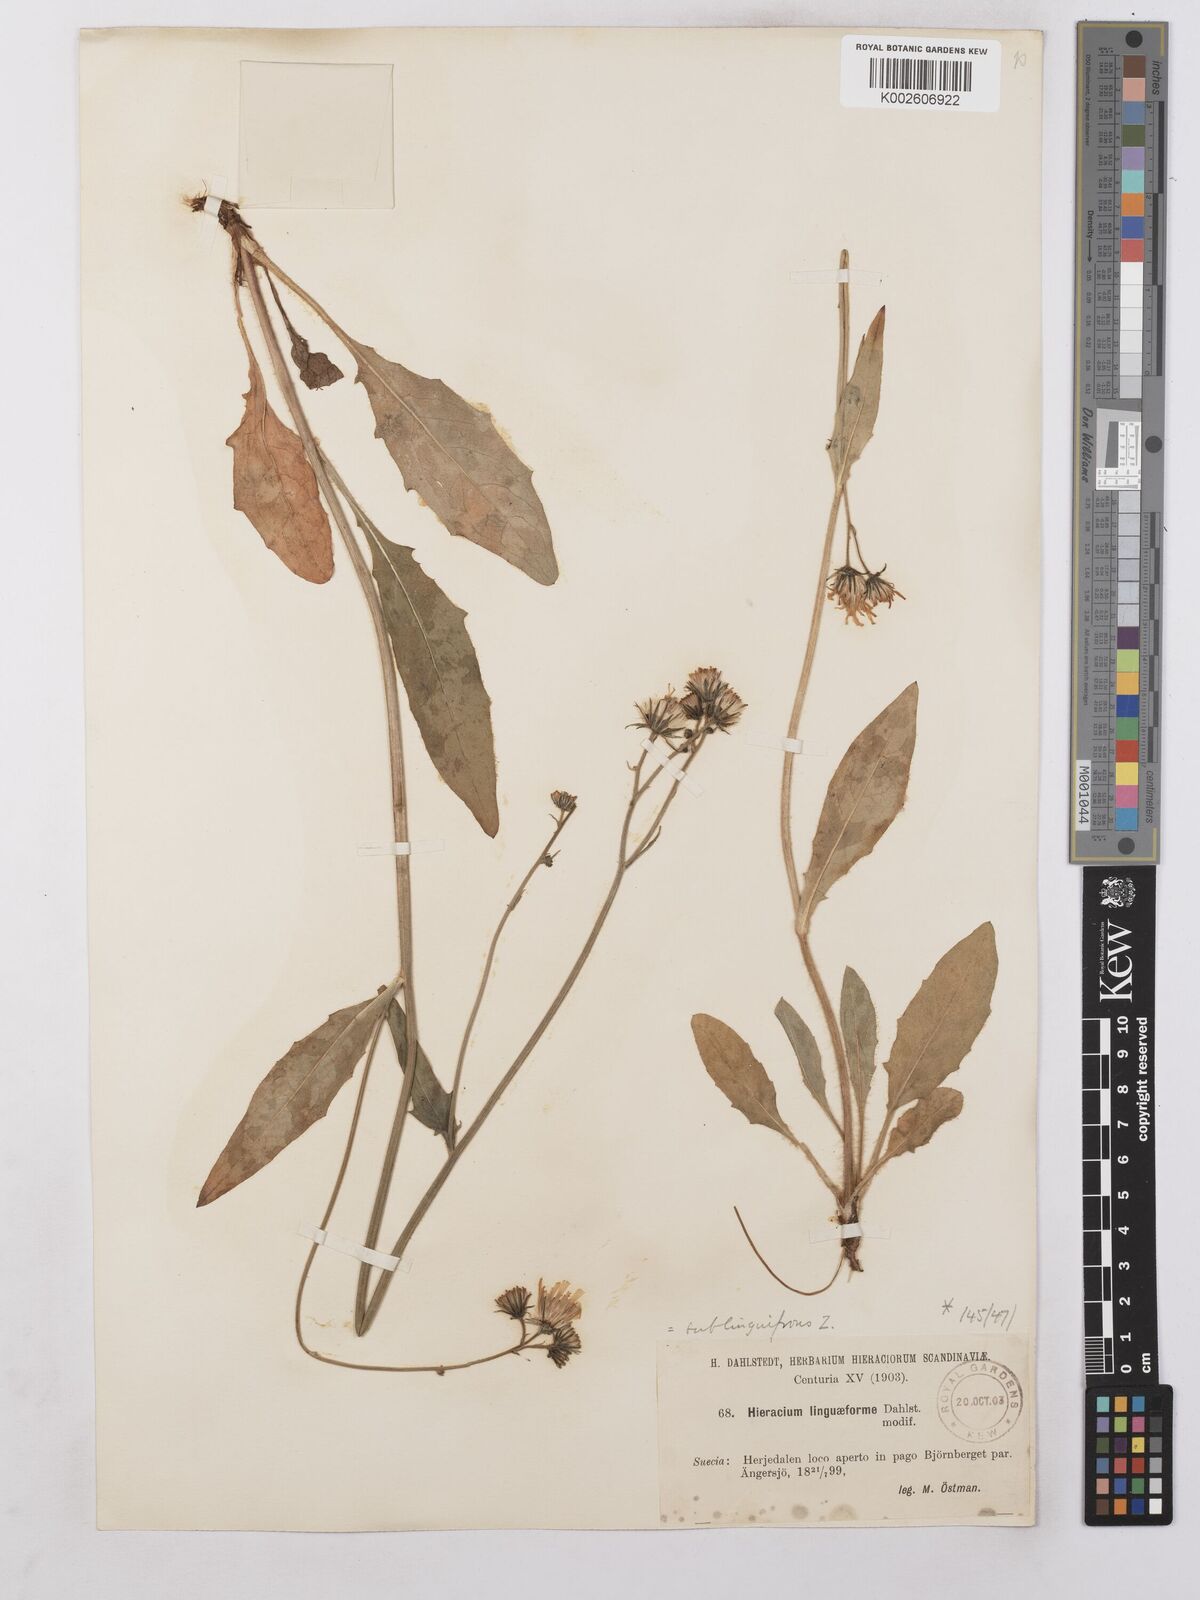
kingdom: Plantae
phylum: Tracheophyta
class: Magnoliopsida
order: Asterales
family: Asteraceae
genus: Hieracium
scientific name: Hieracium levicaule
